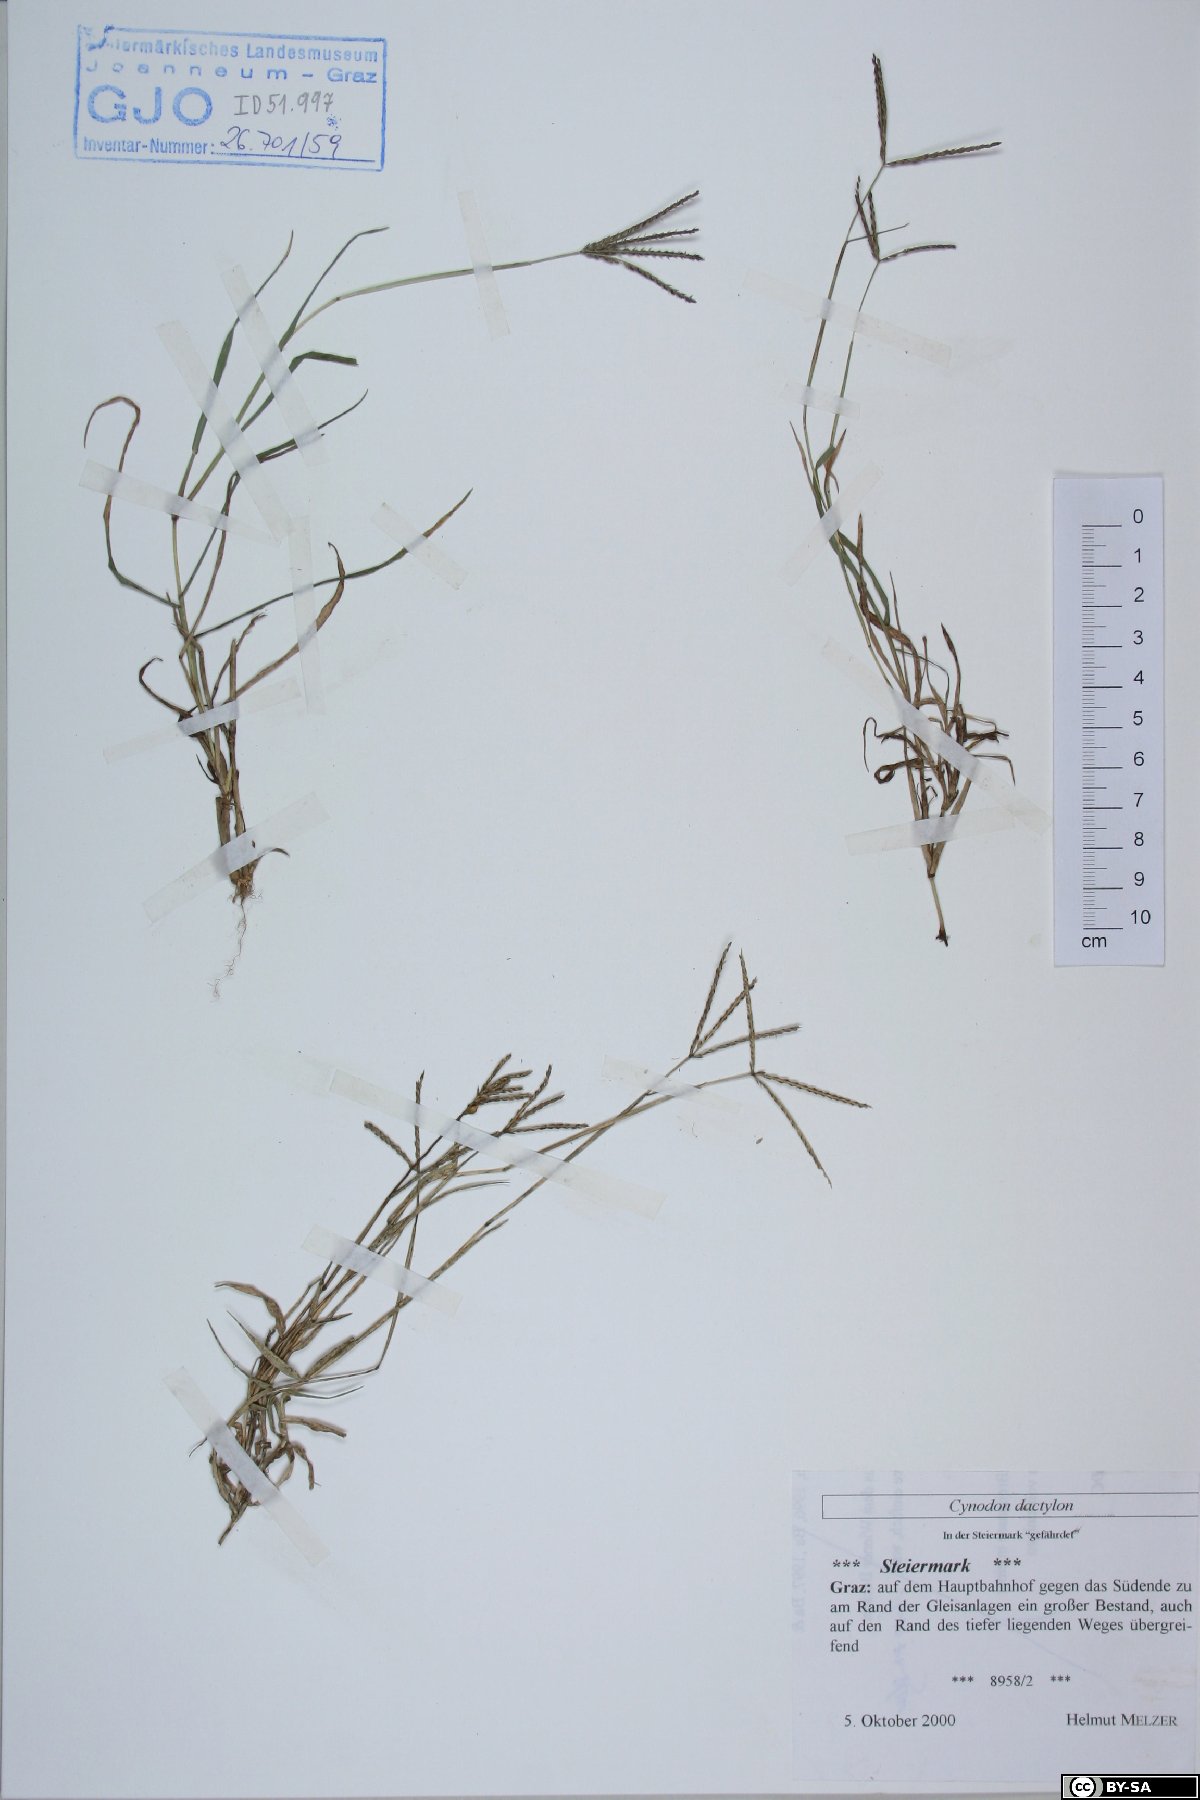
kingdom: Plantae
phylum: Tracheophyta
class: Liliopsida
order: Poales
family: Poaceae
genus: Cynodon
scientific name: Cynodon dactylon
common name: Bermuda grass
